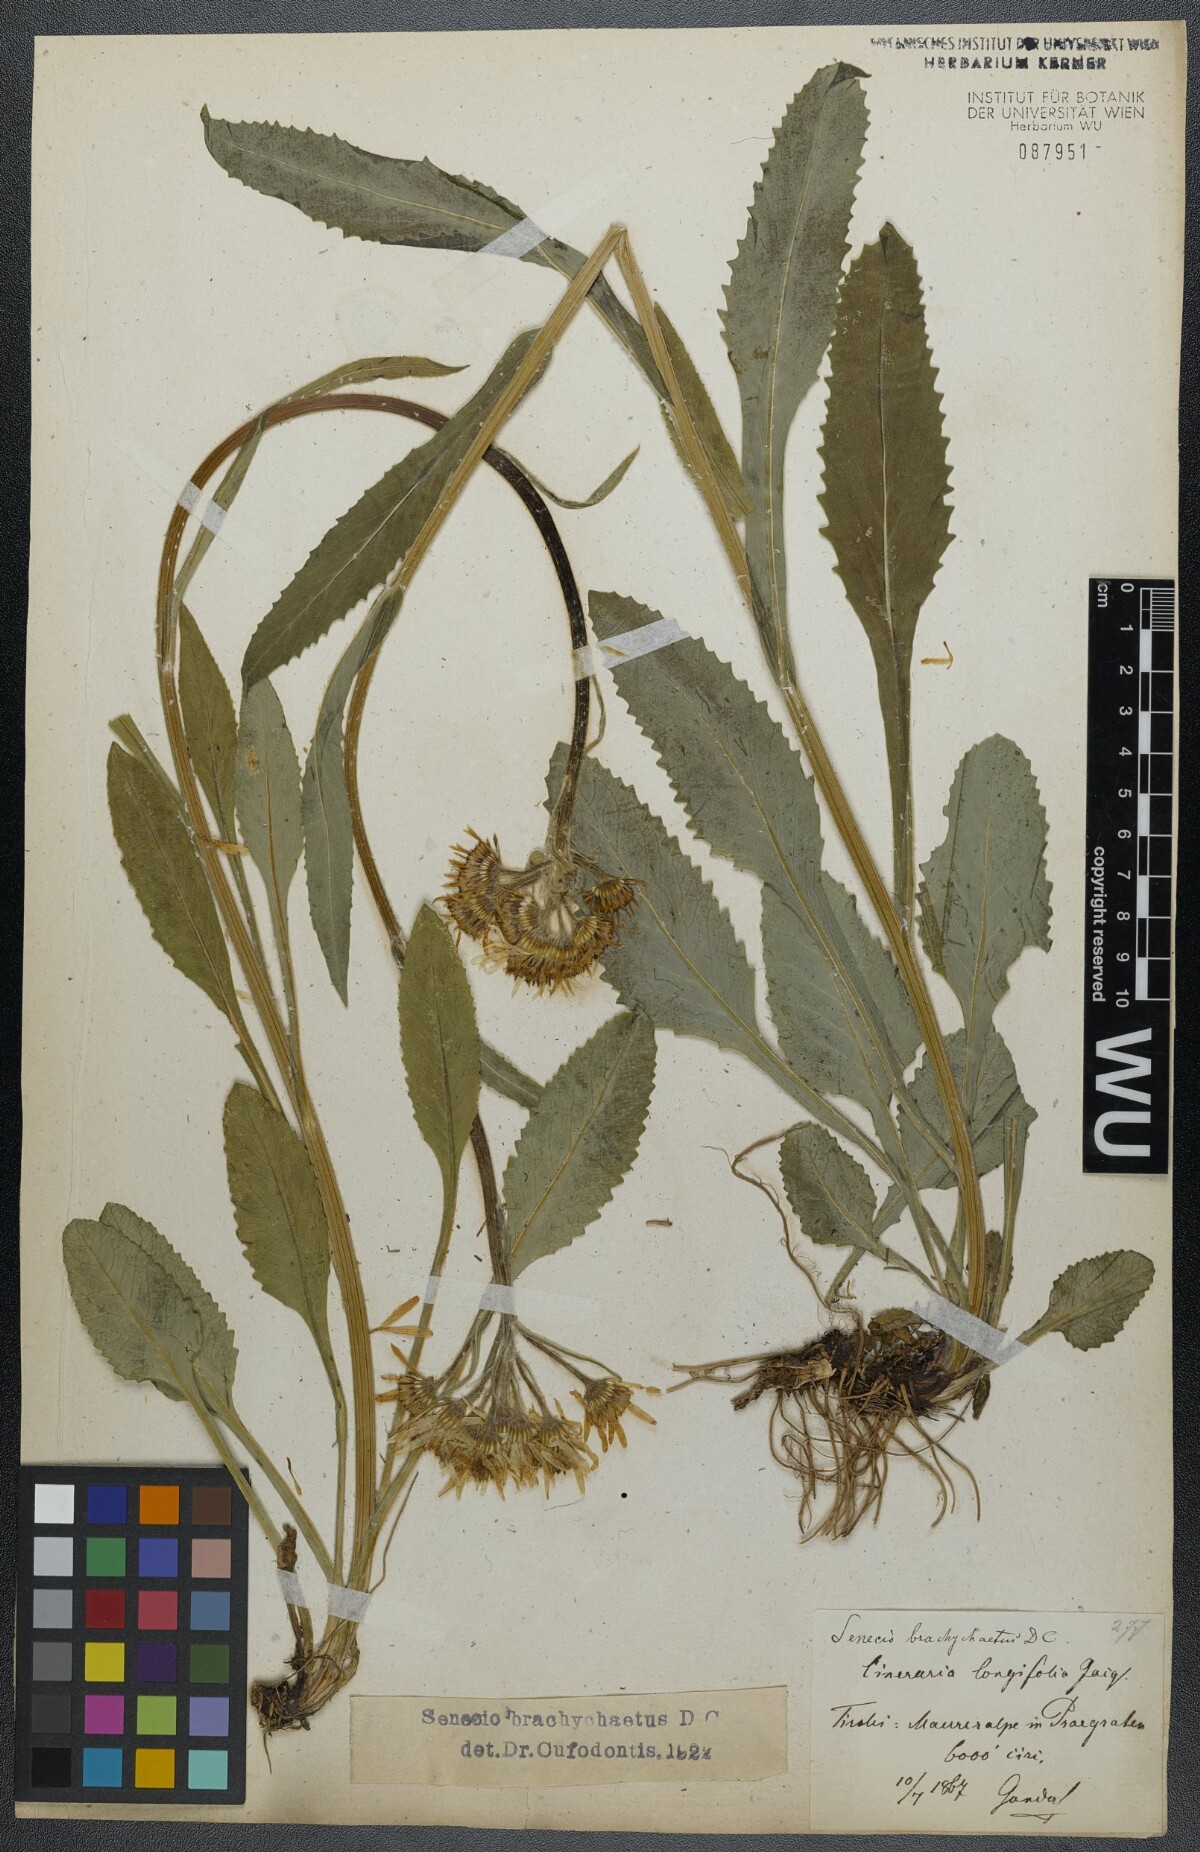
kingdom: Plantae
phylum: Tracheophyta
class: Magnoliopsida
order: Asterales
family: Asteraceae
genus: Tephroseris
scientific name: Tephroseris helenitis
